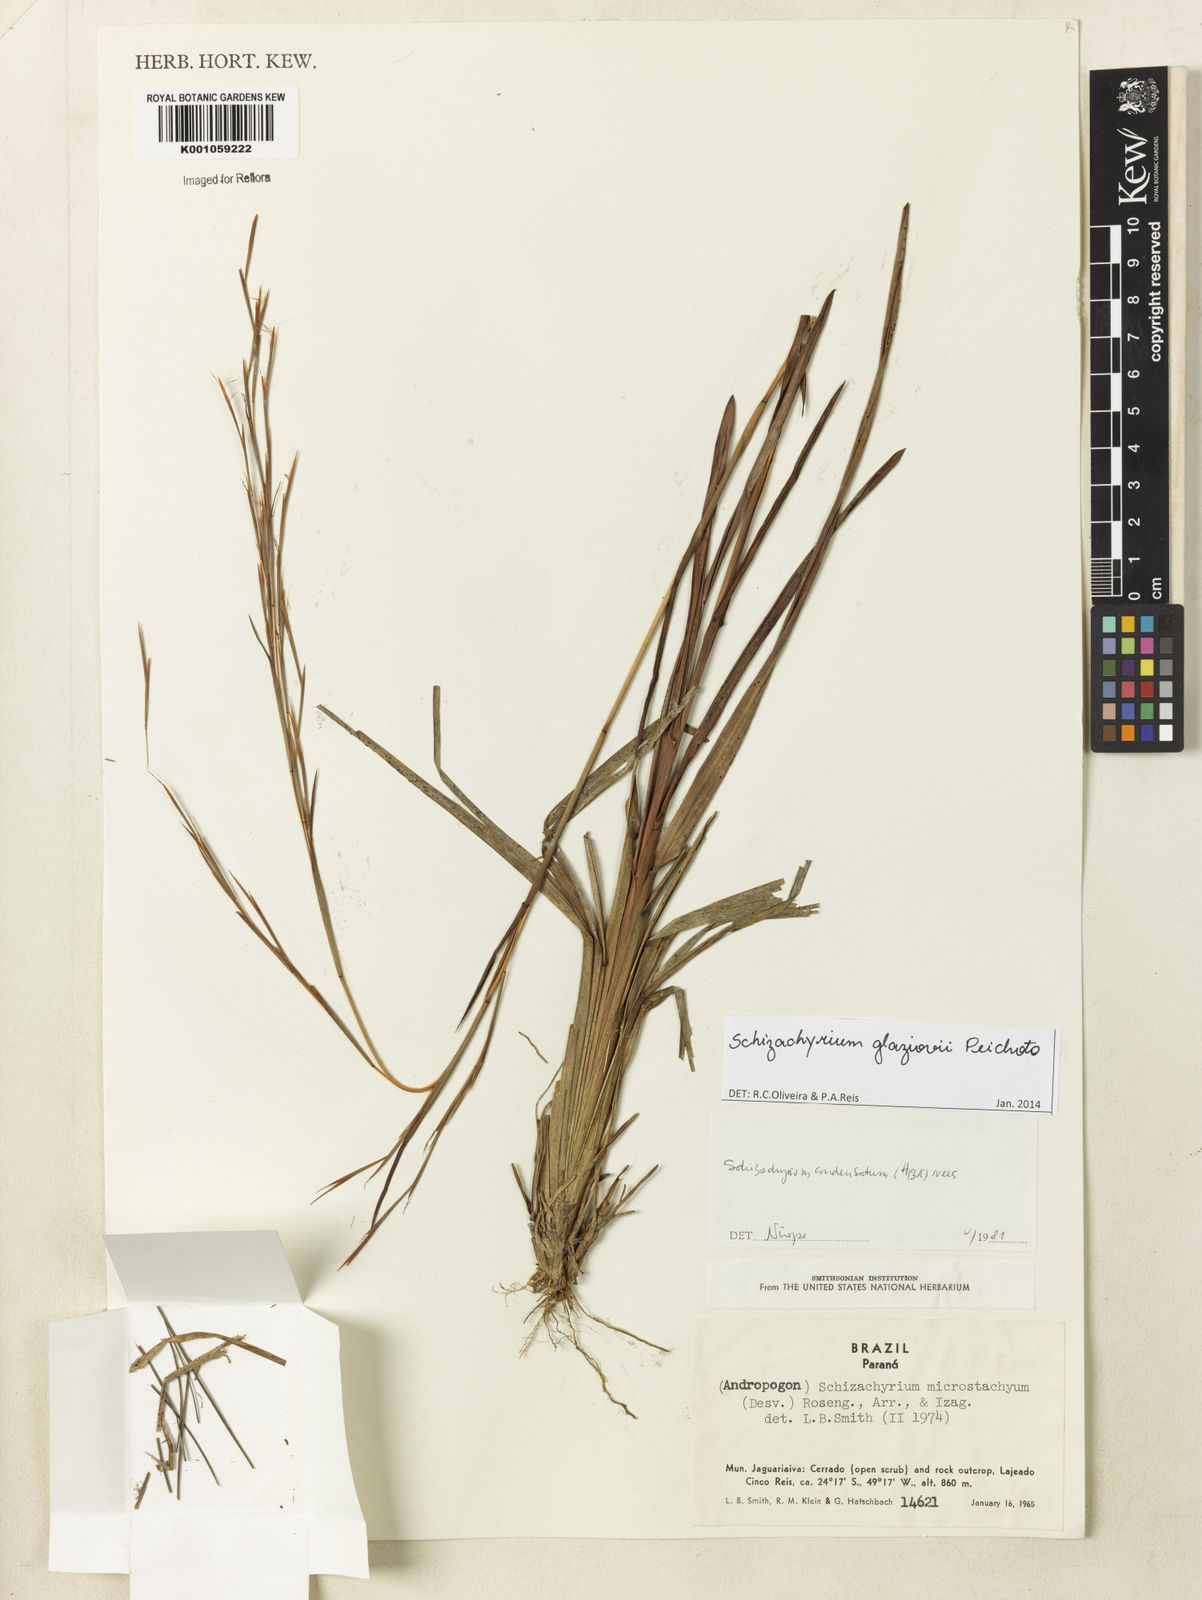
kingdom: Plantae
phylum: Tracheophyta
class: Liliopsida
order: Poales
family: Poaceae
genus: Schizachyrium
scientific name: Schizachyrium glaziovii
